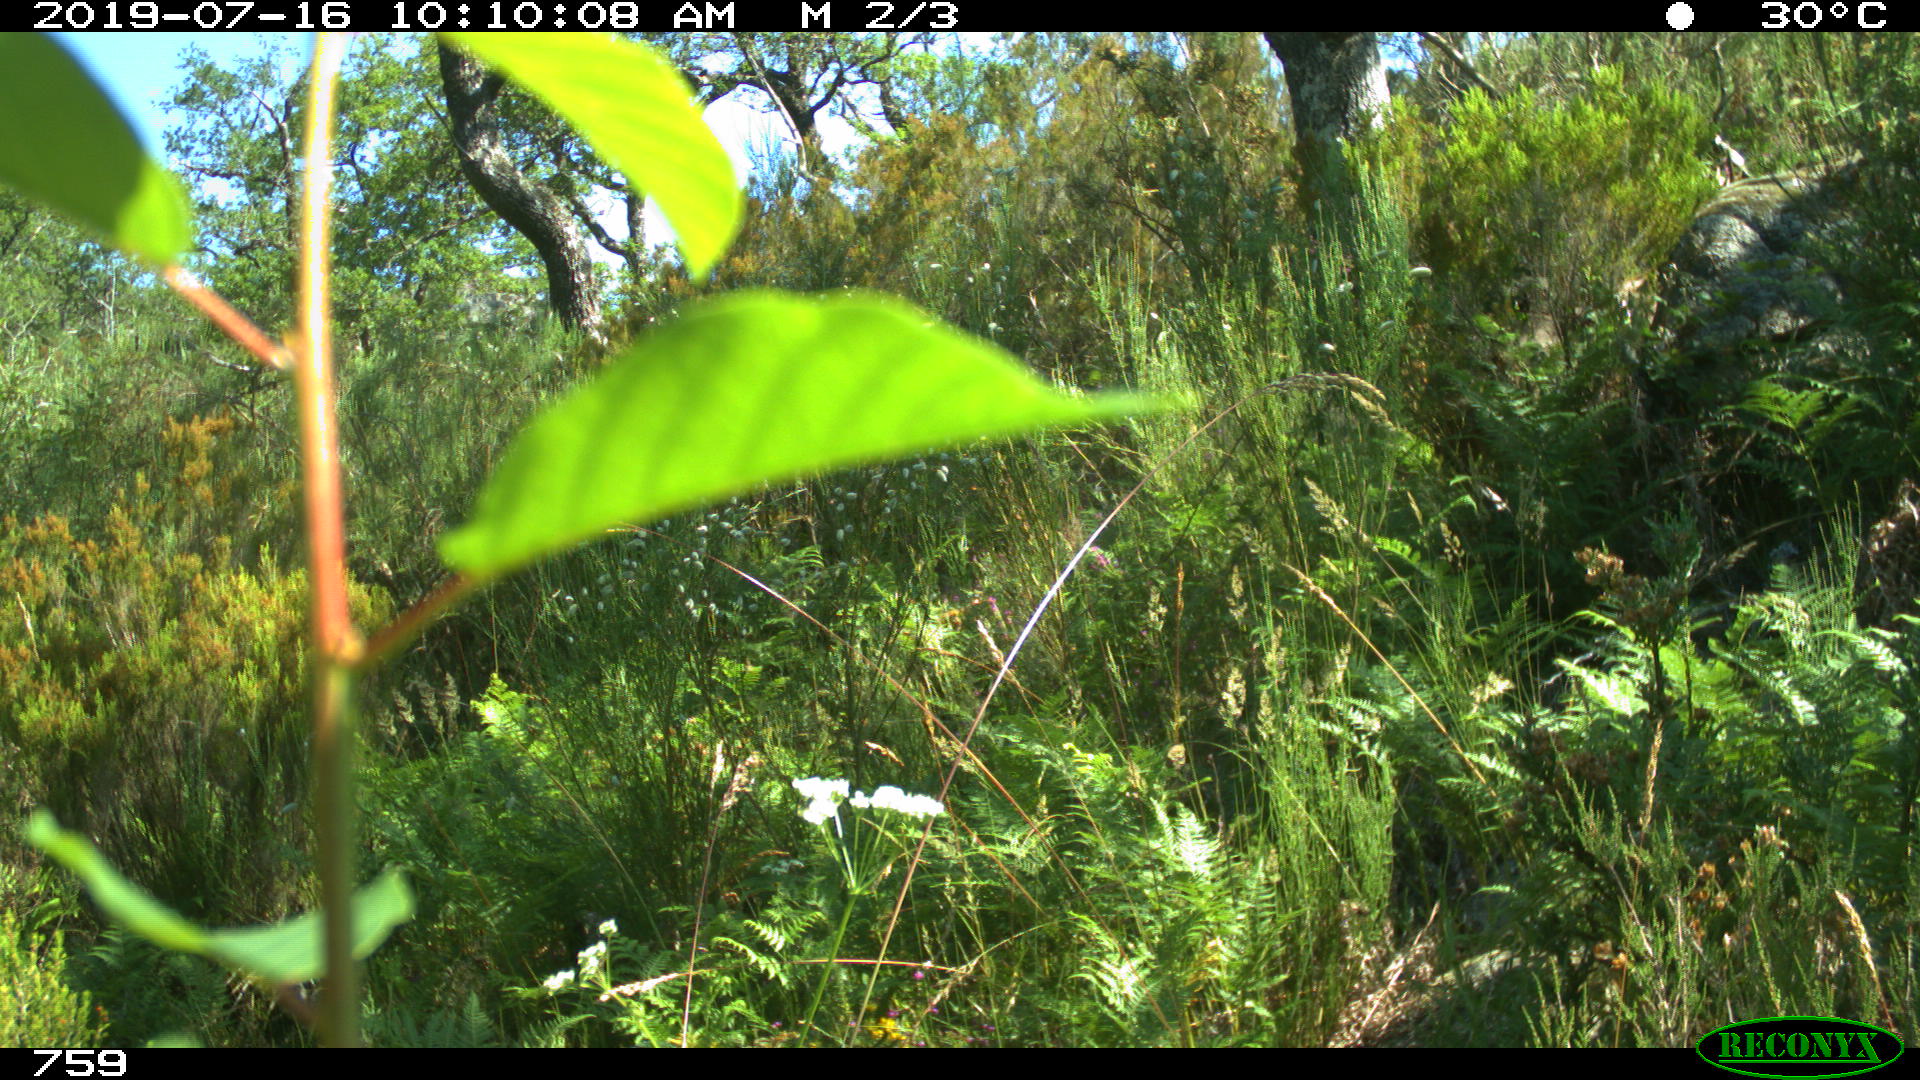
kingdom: Animalia
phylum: Chordata
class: Mammalia
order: Artiodactyla
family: Cervidae
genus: Capreolus
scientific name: Capreolus capreolus
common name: Western roe deer
